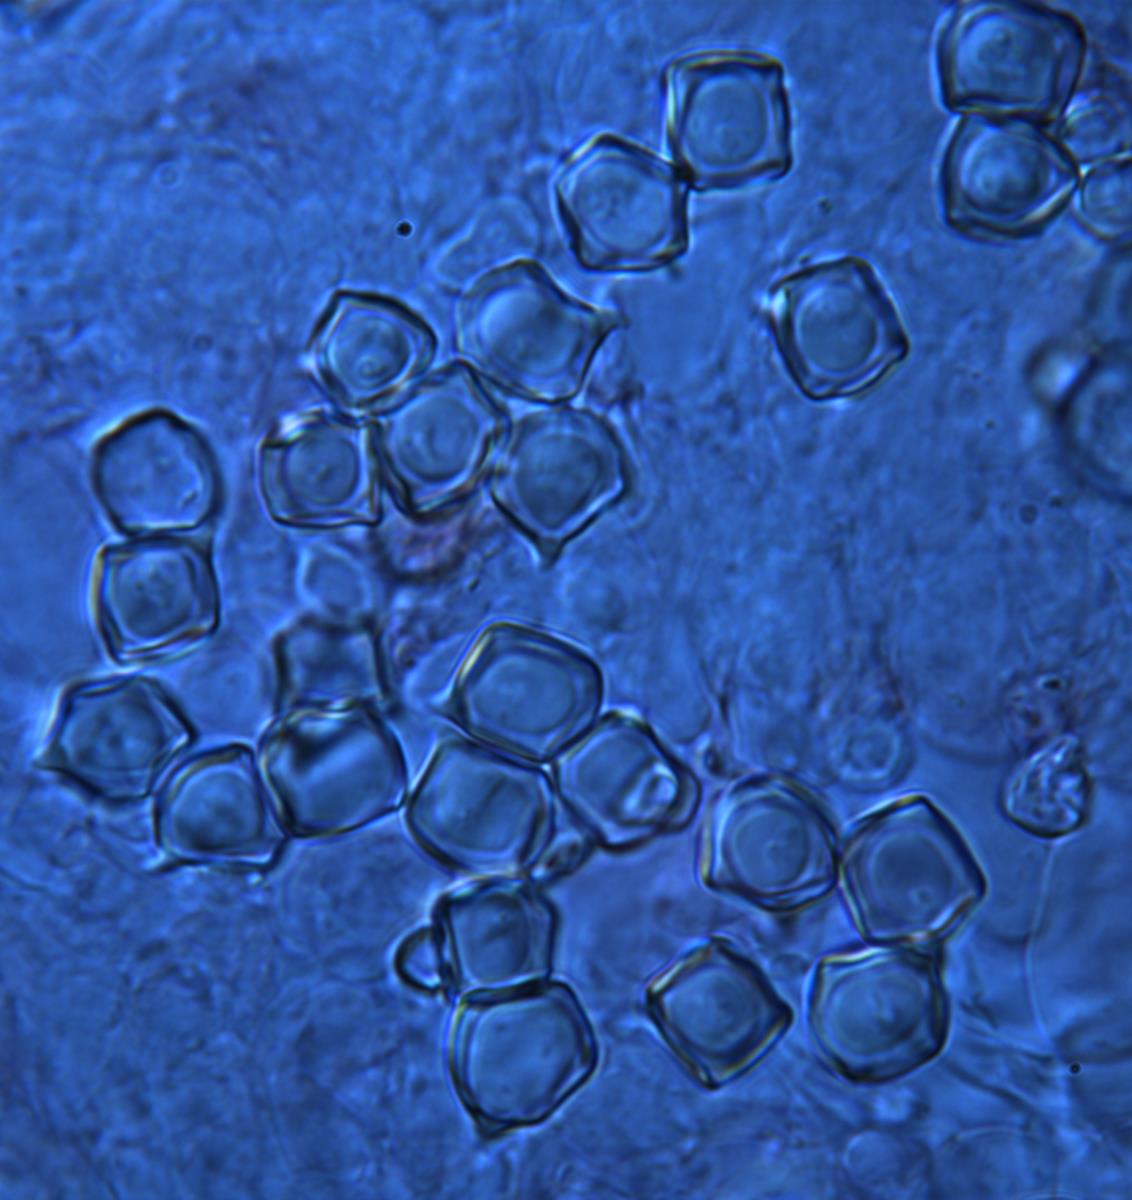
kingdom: Fungi
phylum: Basidiomycota
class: Agaricomycetes
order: Agaricales
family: Entolomataceae
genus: Entoloma
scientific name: Entoloma gasteromycetoides
